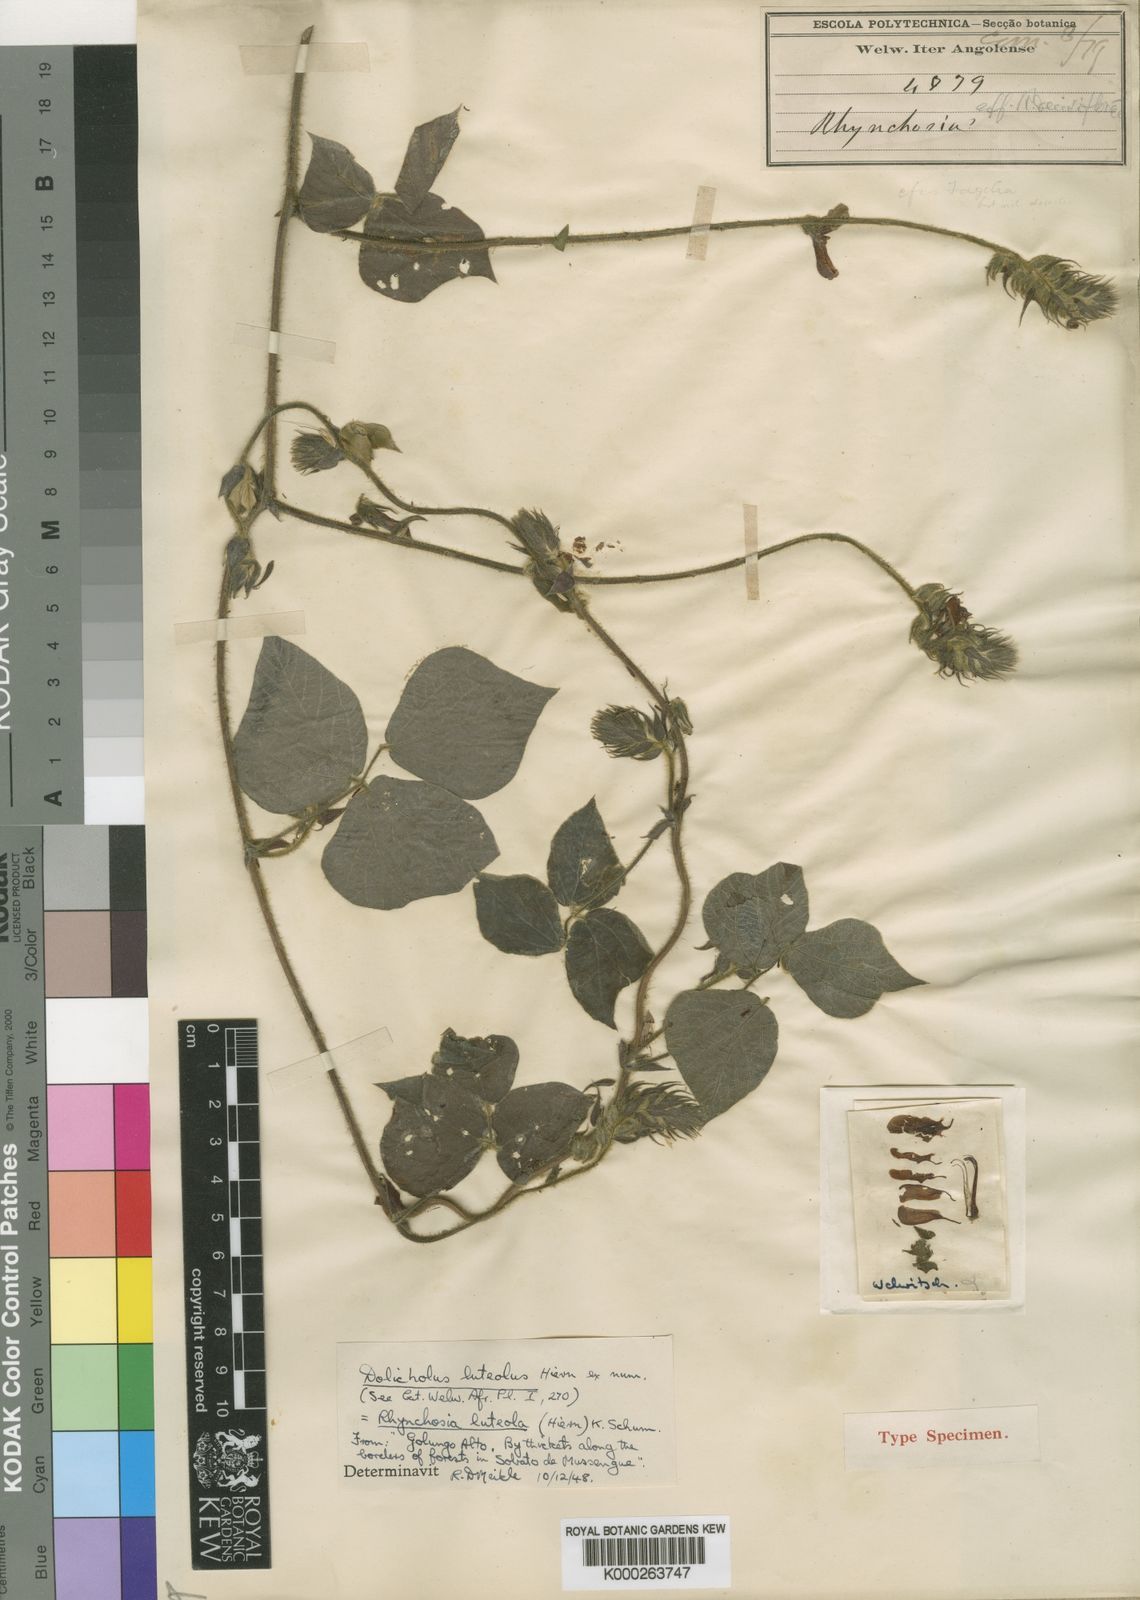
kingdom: Plantae
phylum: Tracheophyta
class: Magnoliopsida
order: Fabales
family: Fabaceae
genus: Rhynchosia
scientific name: Rhynchosia luteola
